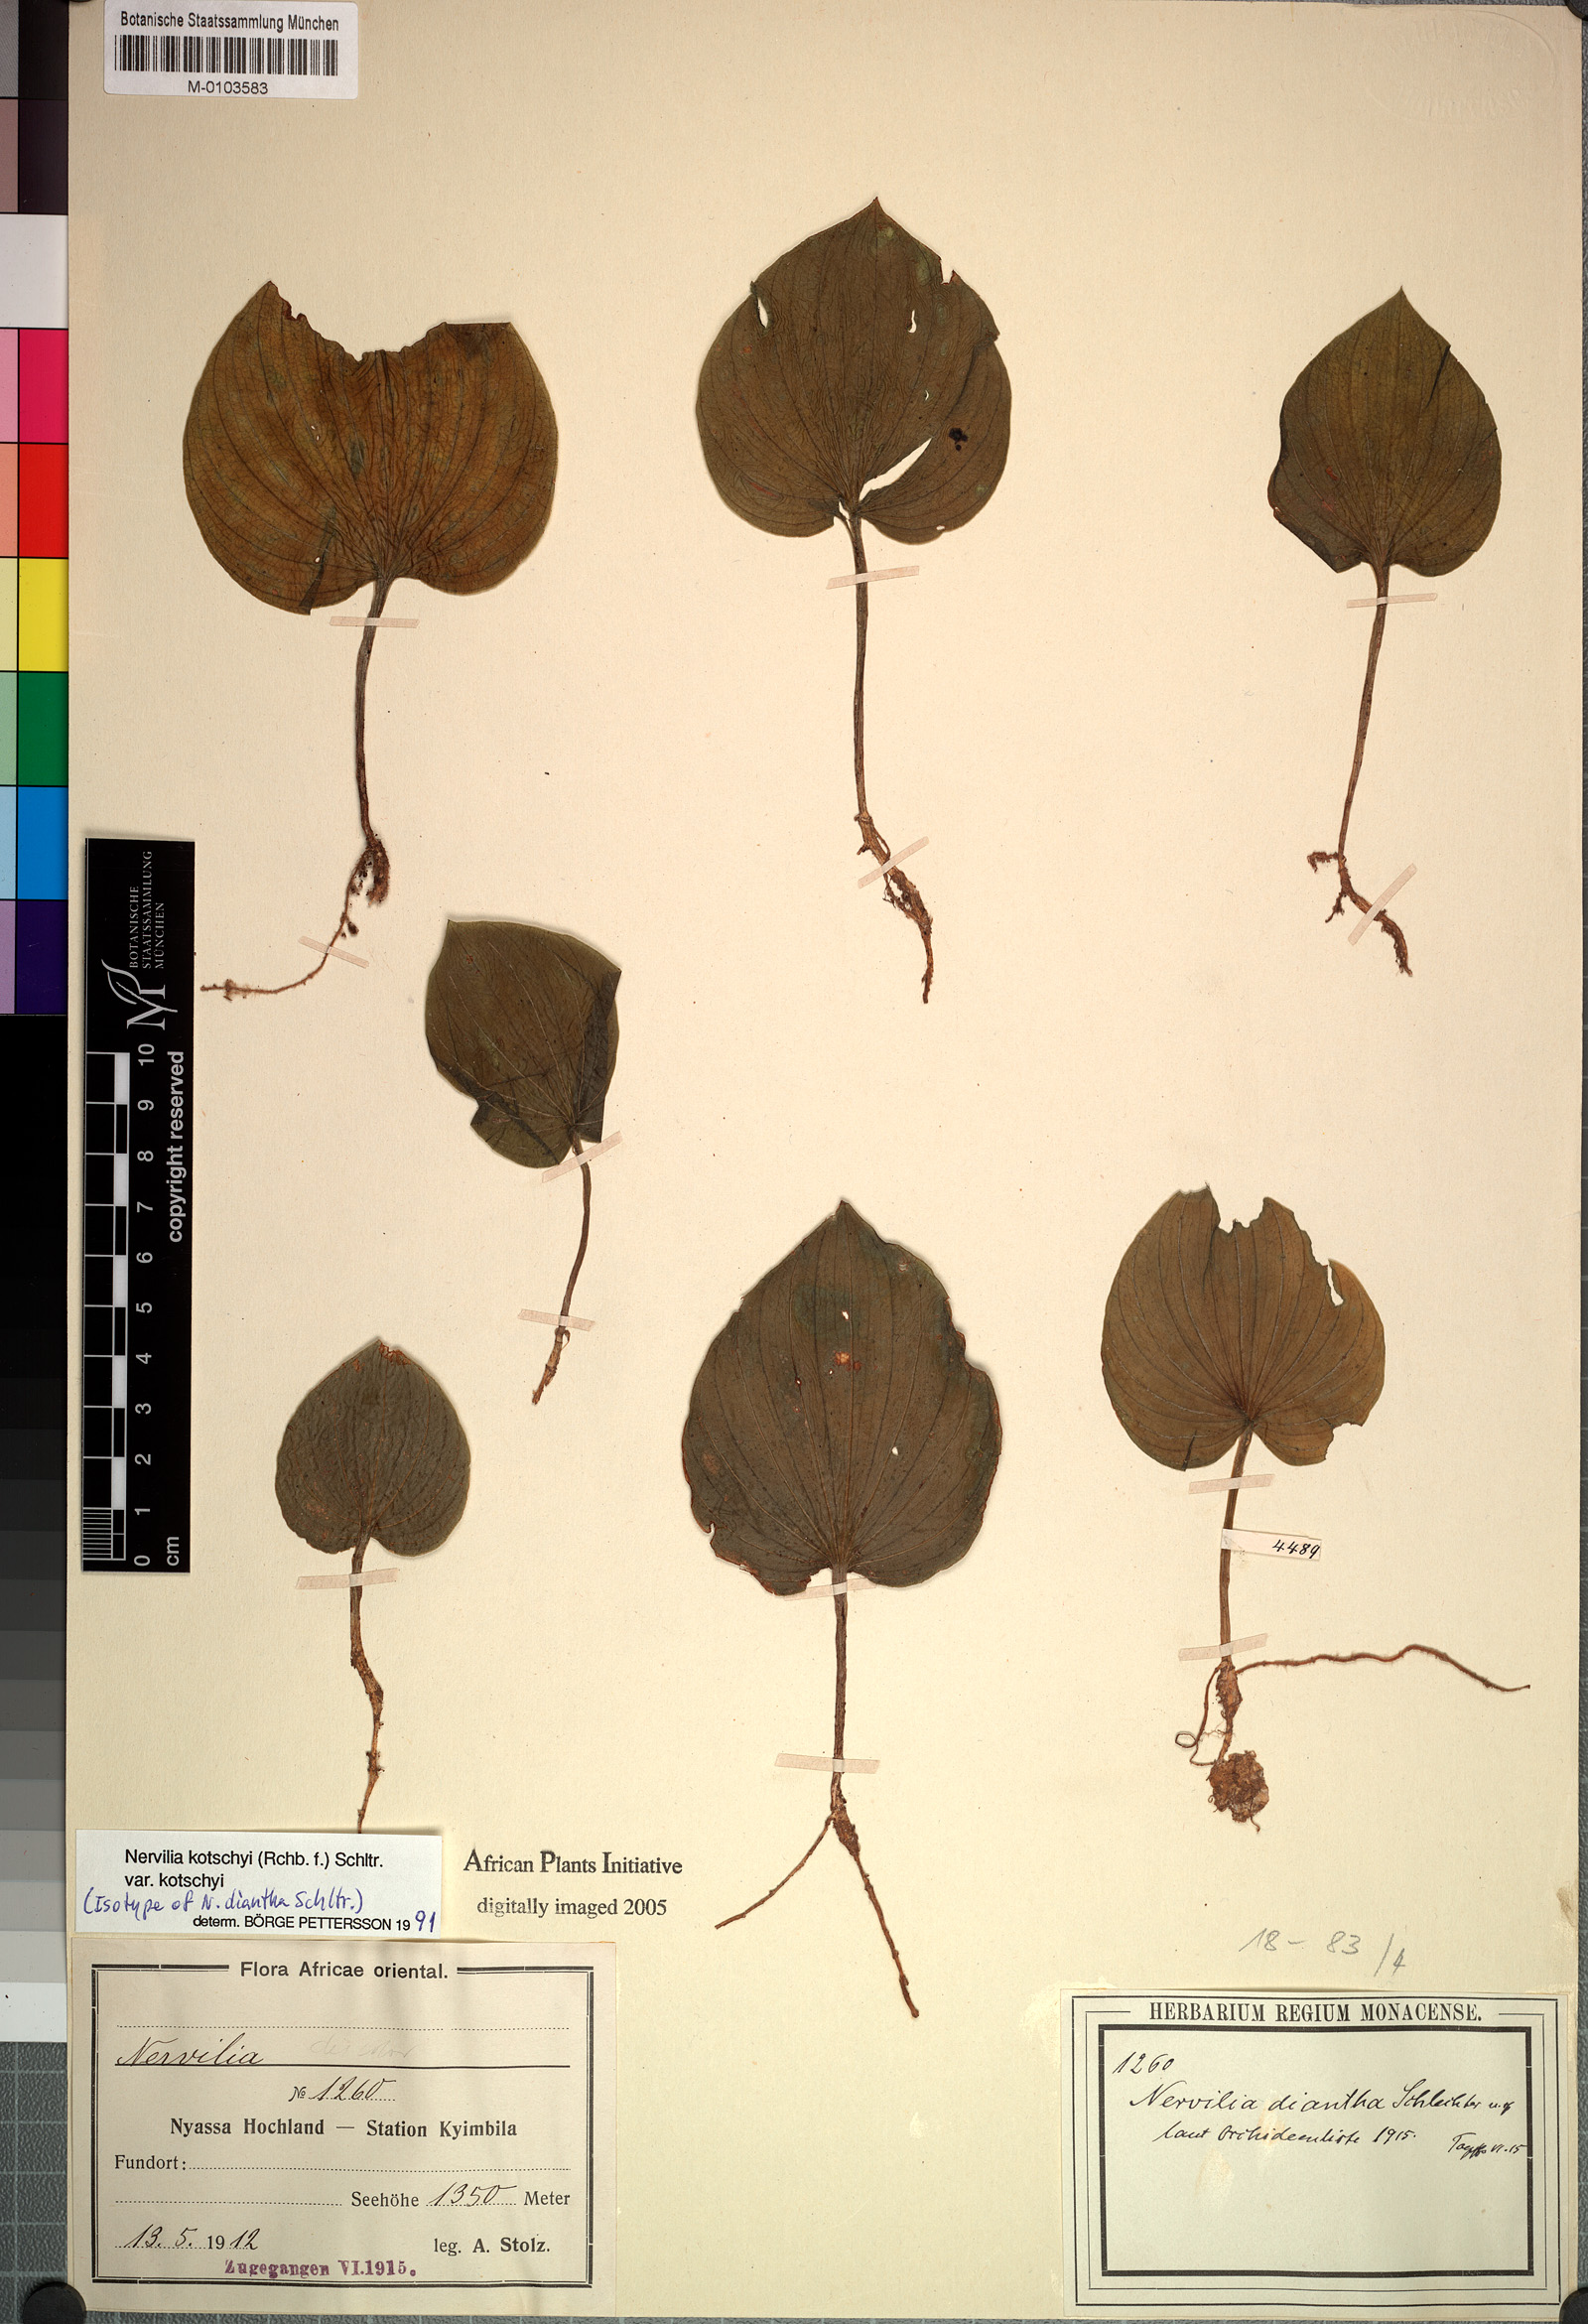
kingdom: Plantae
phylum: Tracheophyta
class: Liliopsida
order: Asparagales
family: Orchidaceae
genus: Nervilia
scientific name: Nervilia kotschyi
